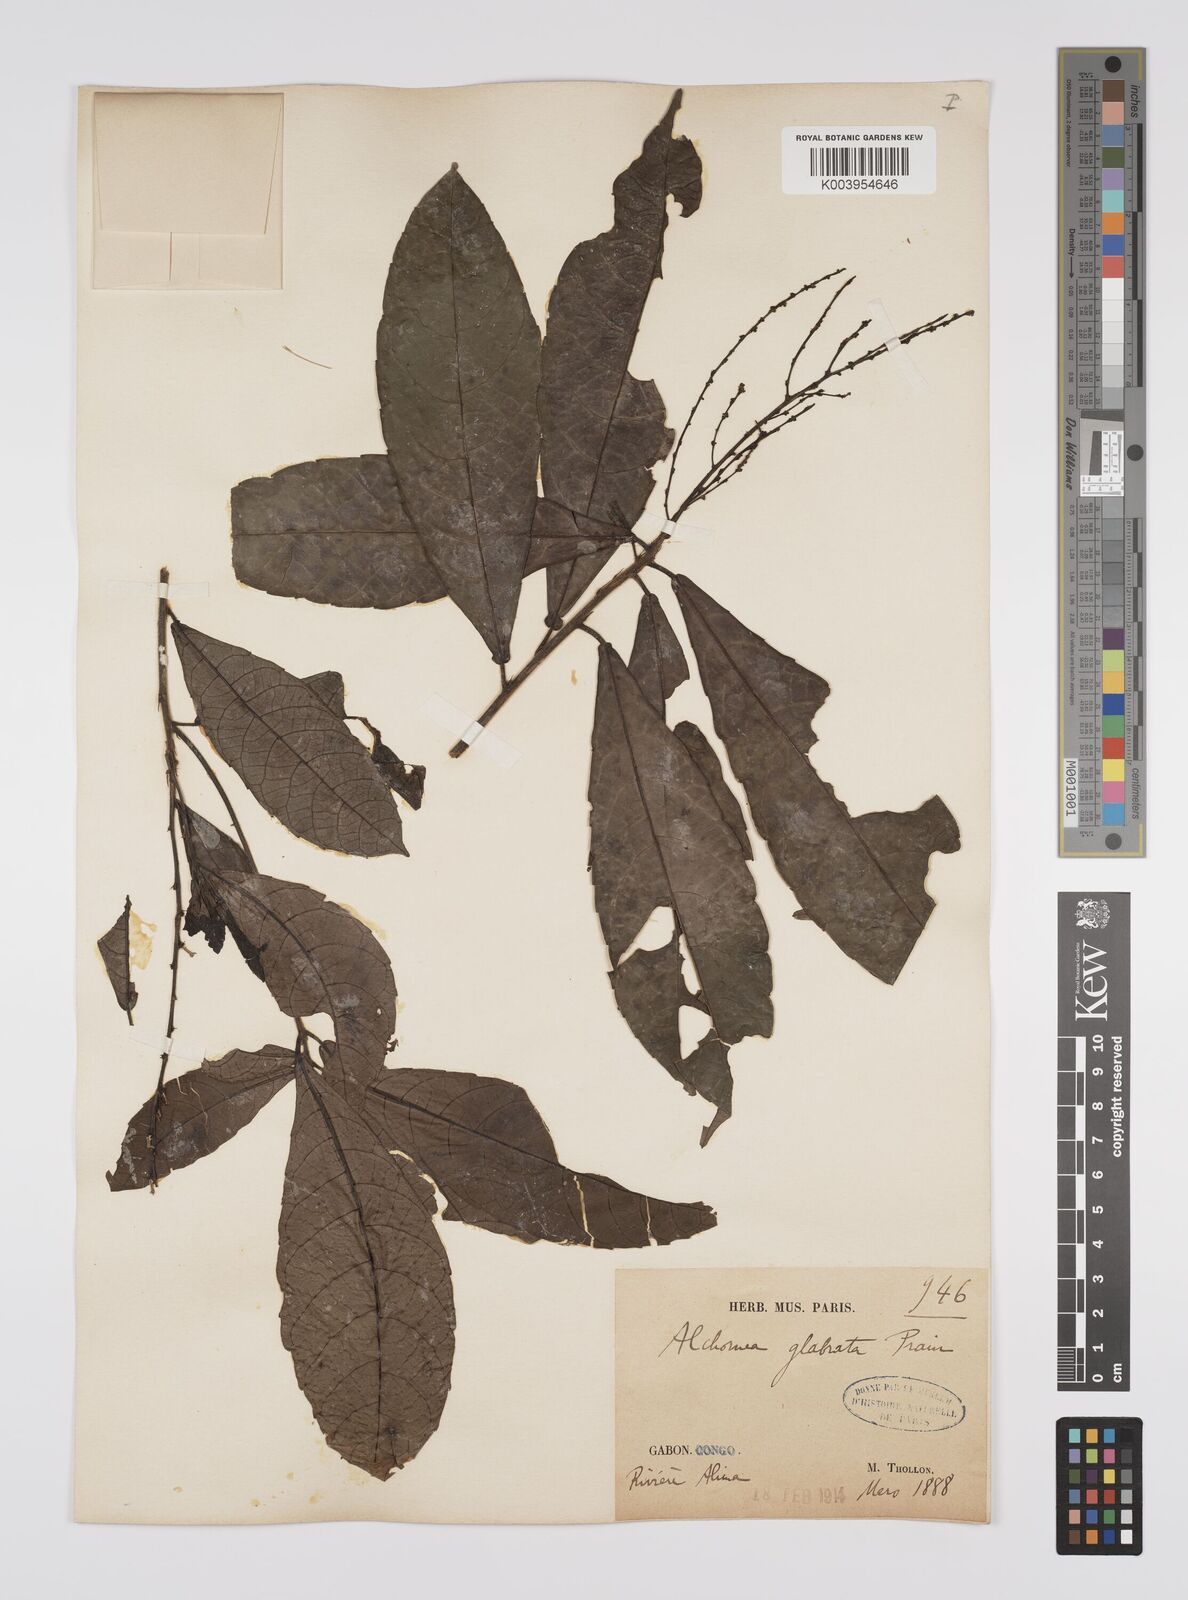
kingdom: Plantae
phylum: Tracheophyta
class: Magnoliopsida
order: Malpighiales
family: Euphorbiaceae
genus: Alchornea
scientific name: Alchornea hirtella
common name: Forest bead-string
